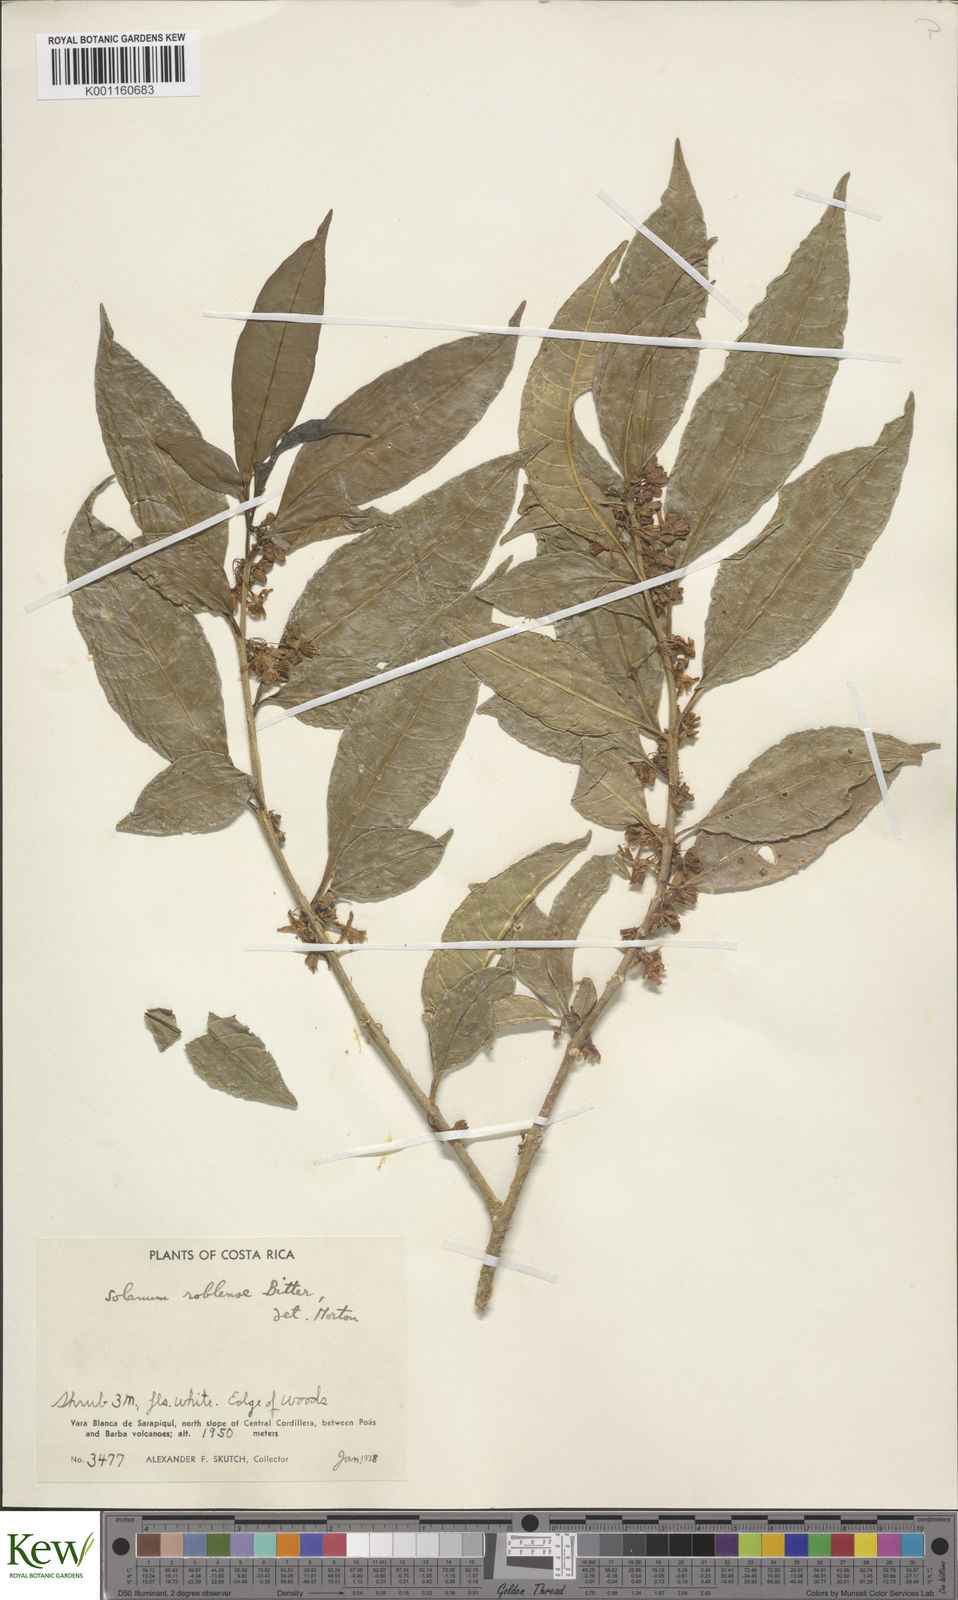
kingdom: Plantae
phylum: Tracheophyta
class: Magnoliopsida
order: Solanales
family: Solanaceae
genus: Solanum
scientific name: Solanum roblense
